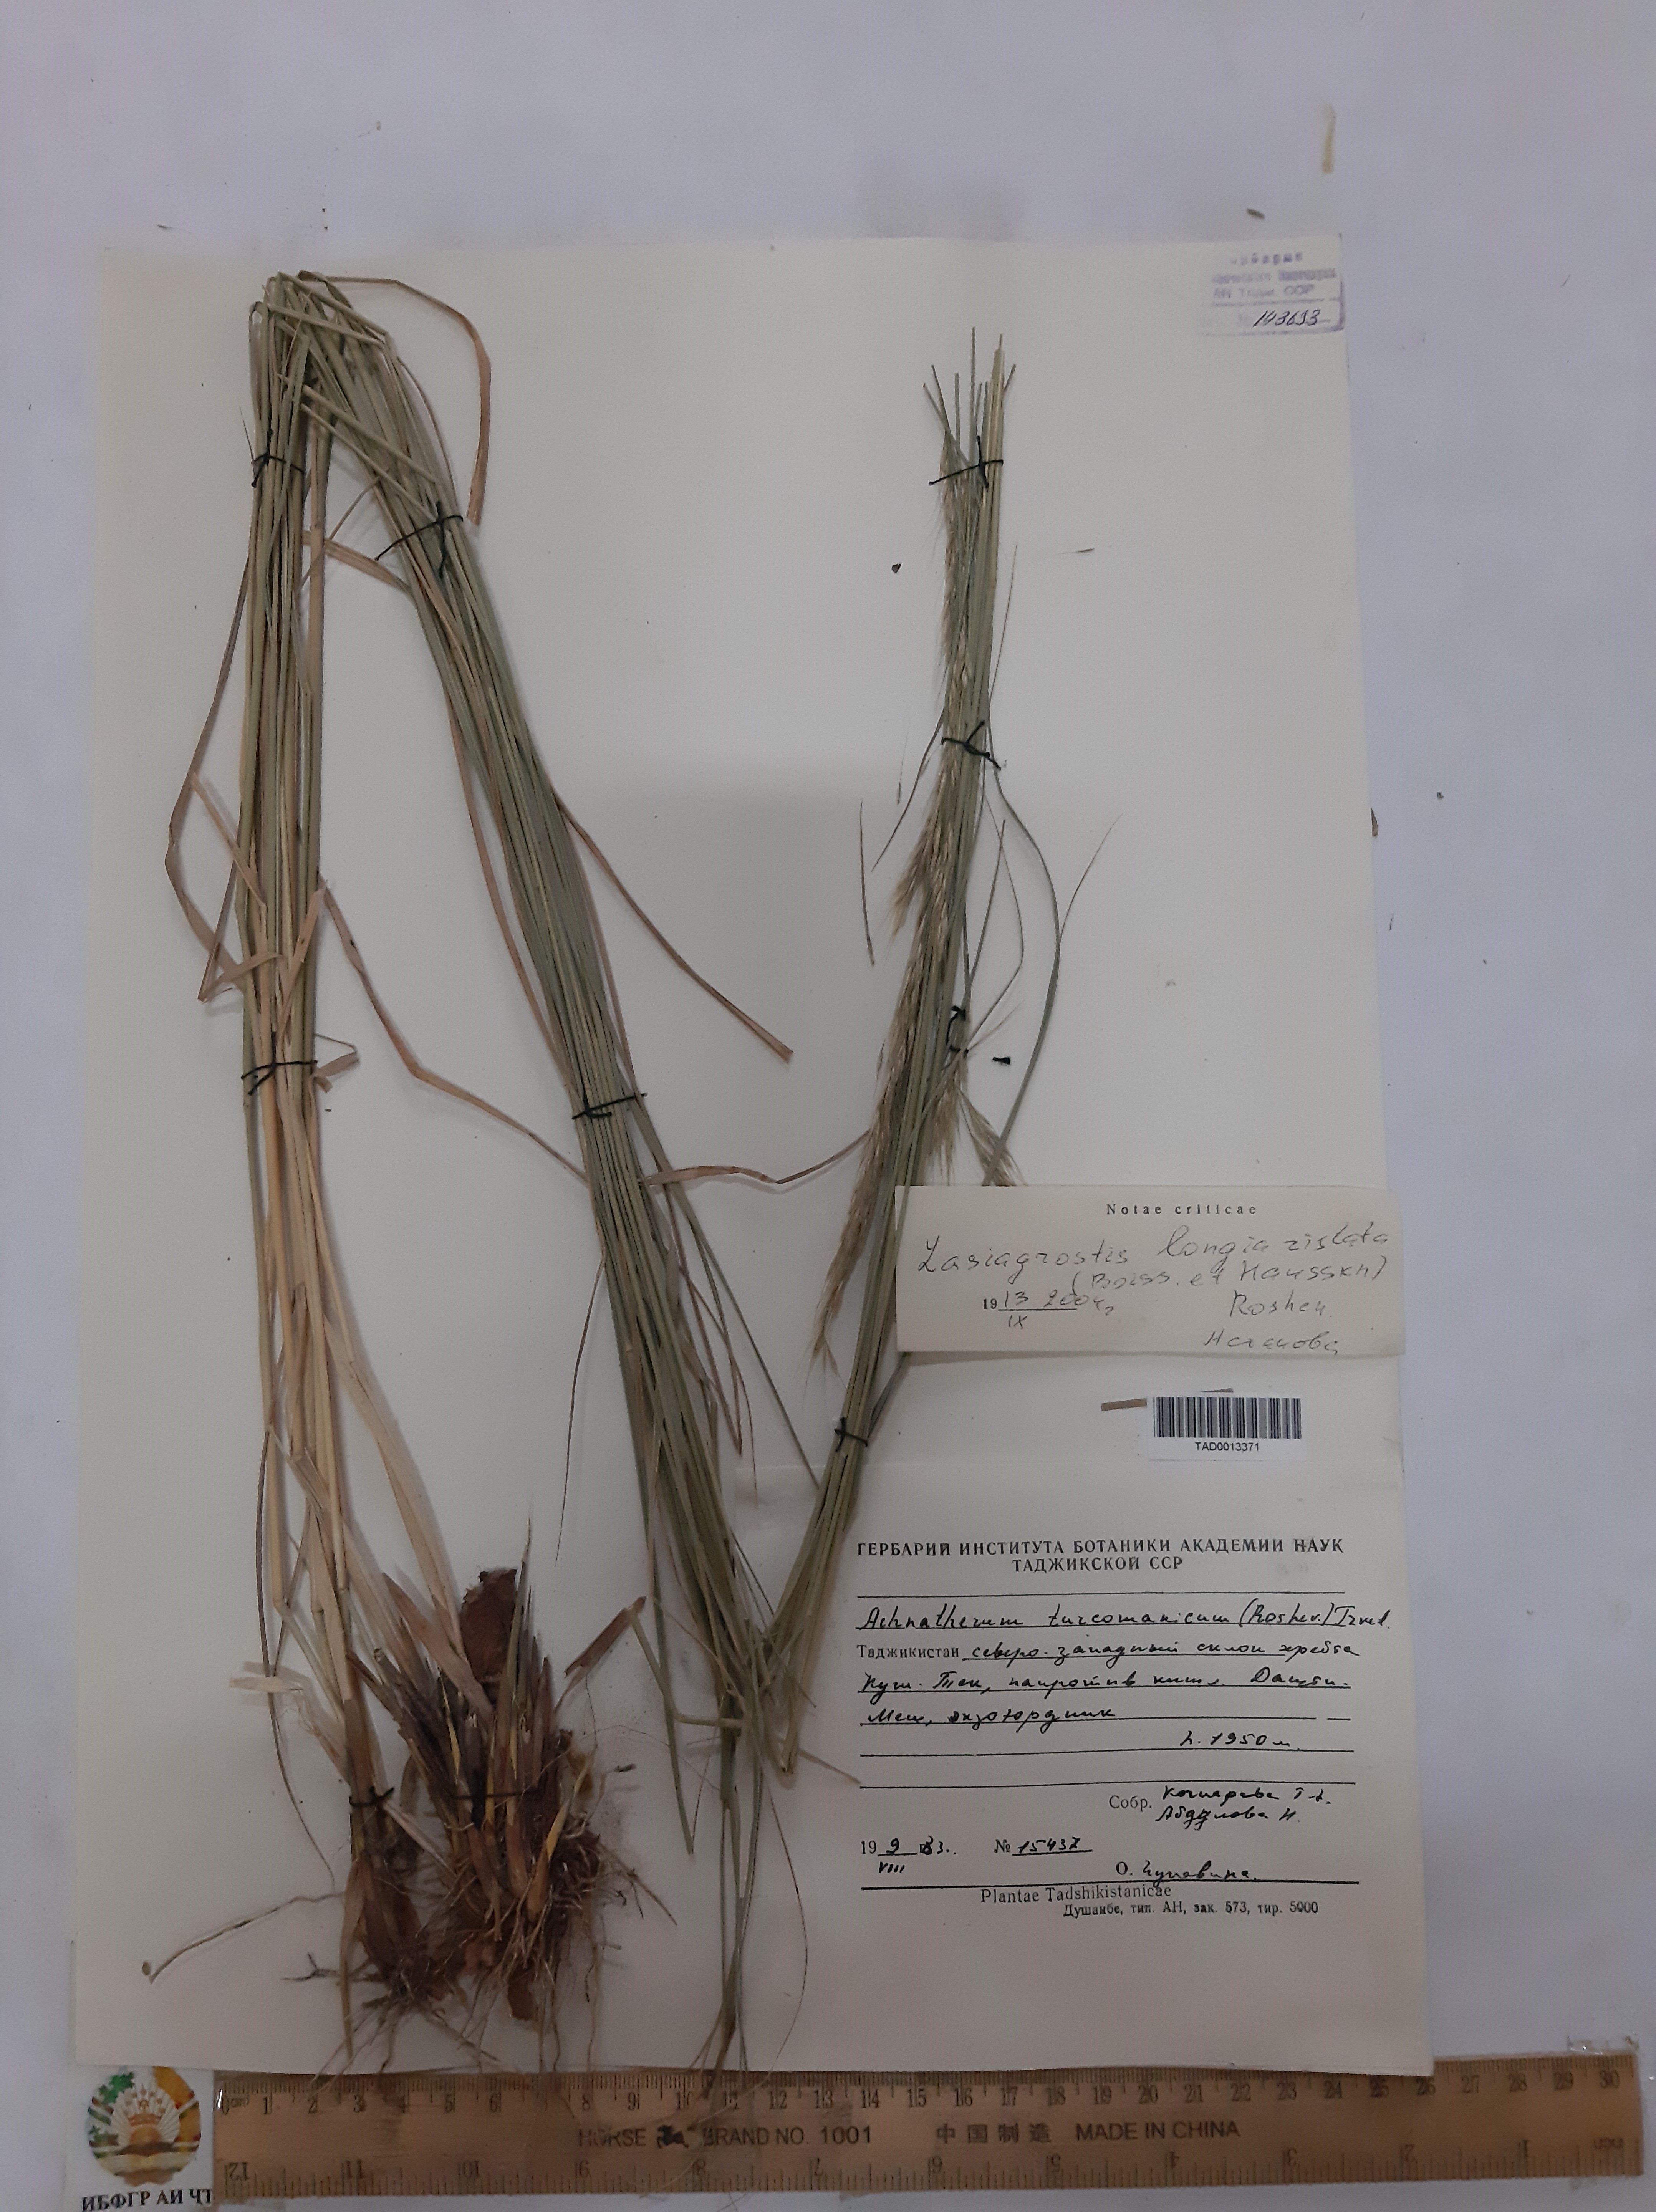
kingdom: Plantae
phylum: Tracheophyta
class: Liliopsida
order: Poales
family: Poaceae
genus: Achnatherum
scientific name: Achnatherum turcomanicum
